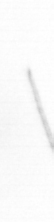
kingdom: Chromista
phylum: Ochrophyta
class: Bacillariophyceae
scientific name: Bacillariophyceae
